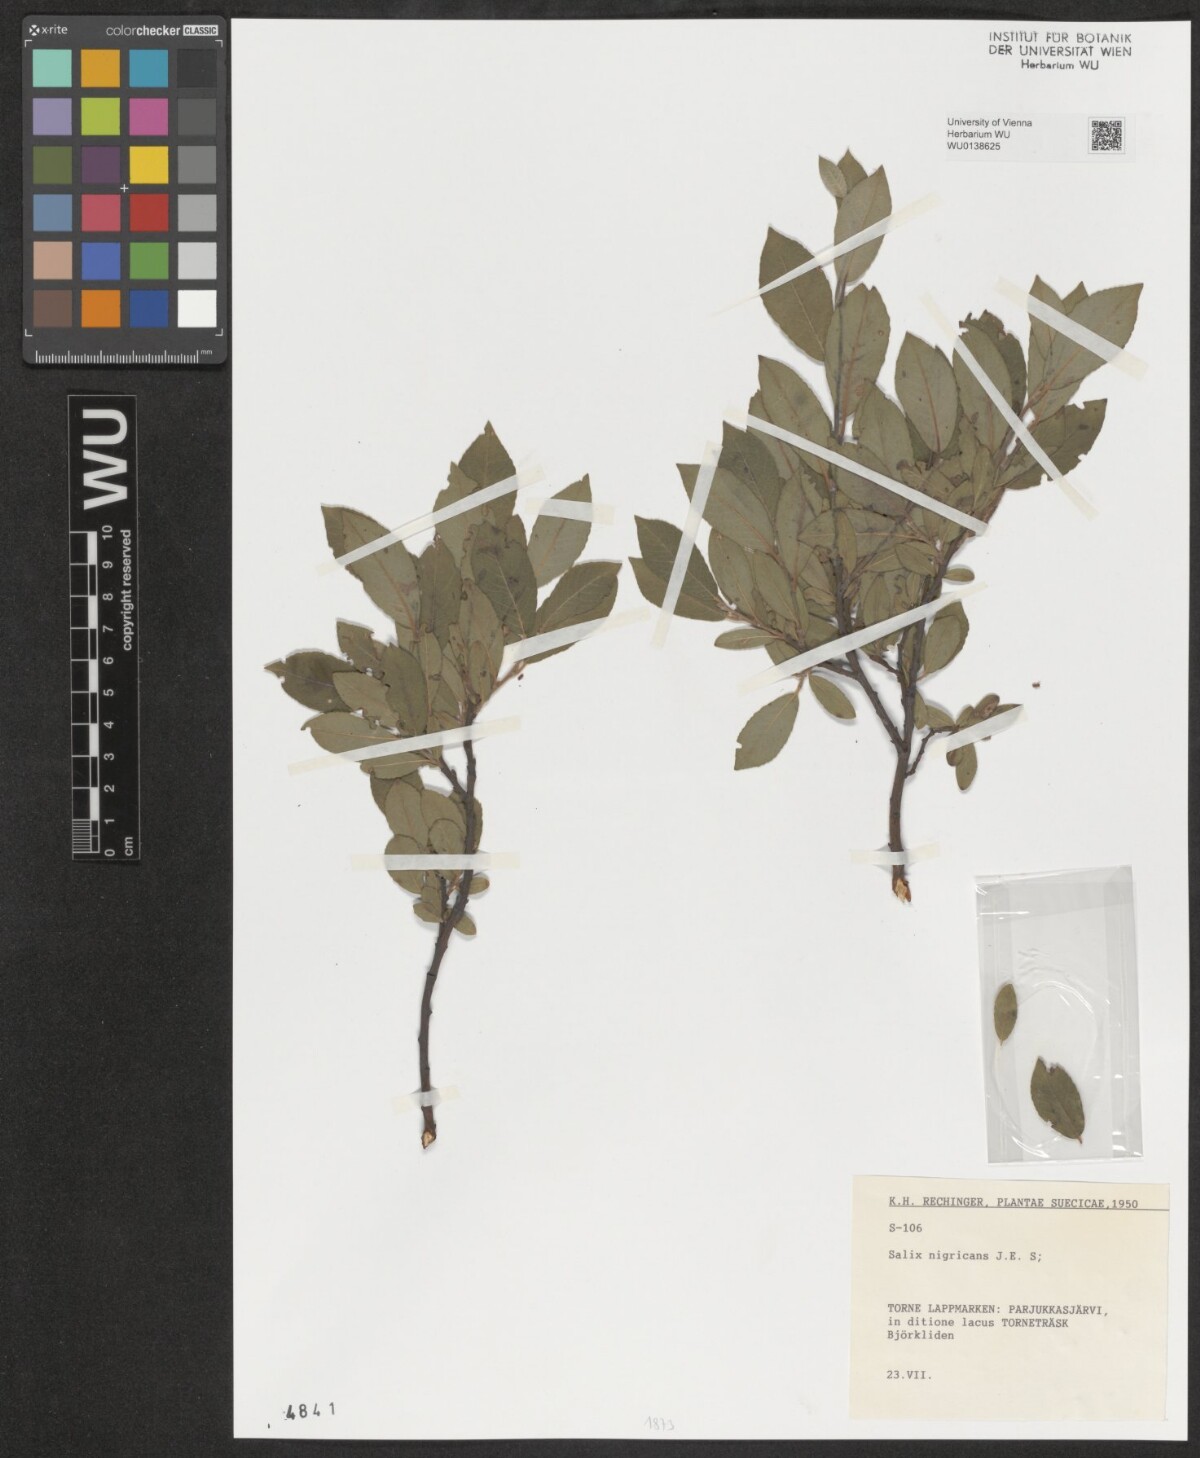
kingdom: Plantae
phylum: Tracheophyta
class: Magnoliopsida
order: Malpighiales
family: Salicaceae
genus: Salix
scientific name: Salix myrsinifolia
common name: Dark-leaved willow
